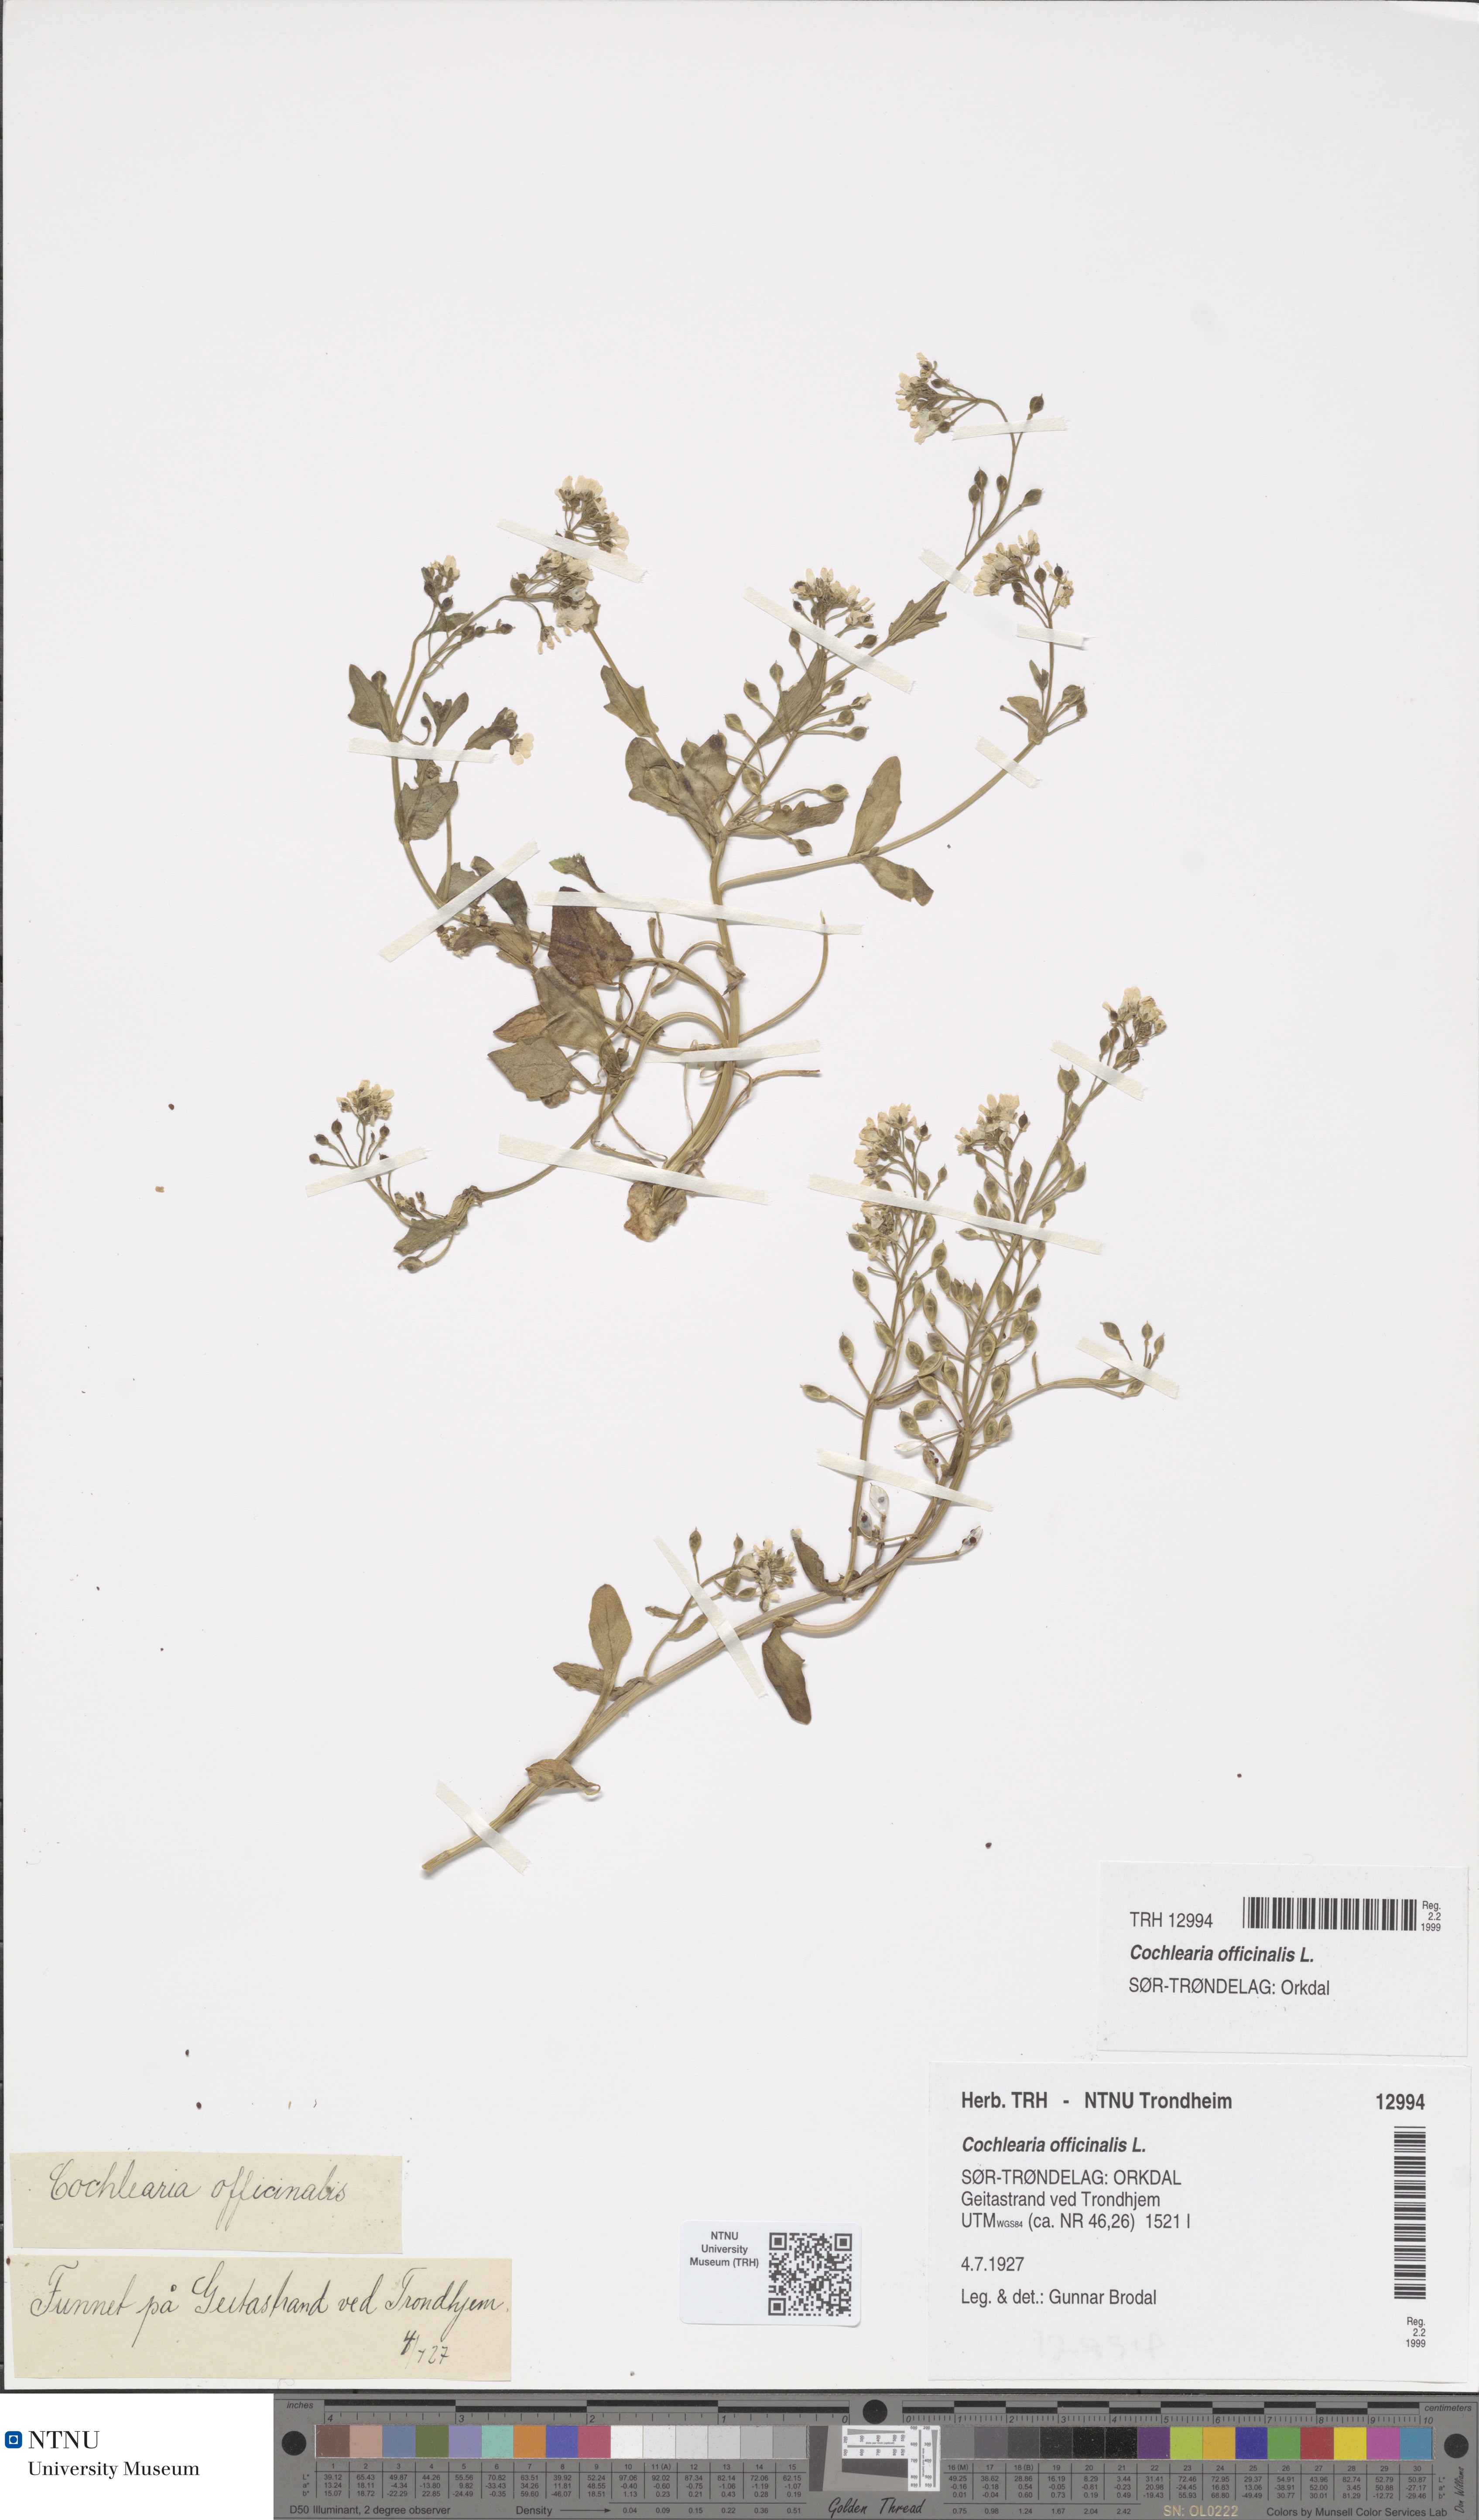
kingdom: Plantae
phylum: Tracheophyta
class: Magnoliopsida
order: Brassicales
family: Brassicaceae
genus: Cochlearia
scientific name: Cochlearia officinalis
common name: Scurvy-grass
